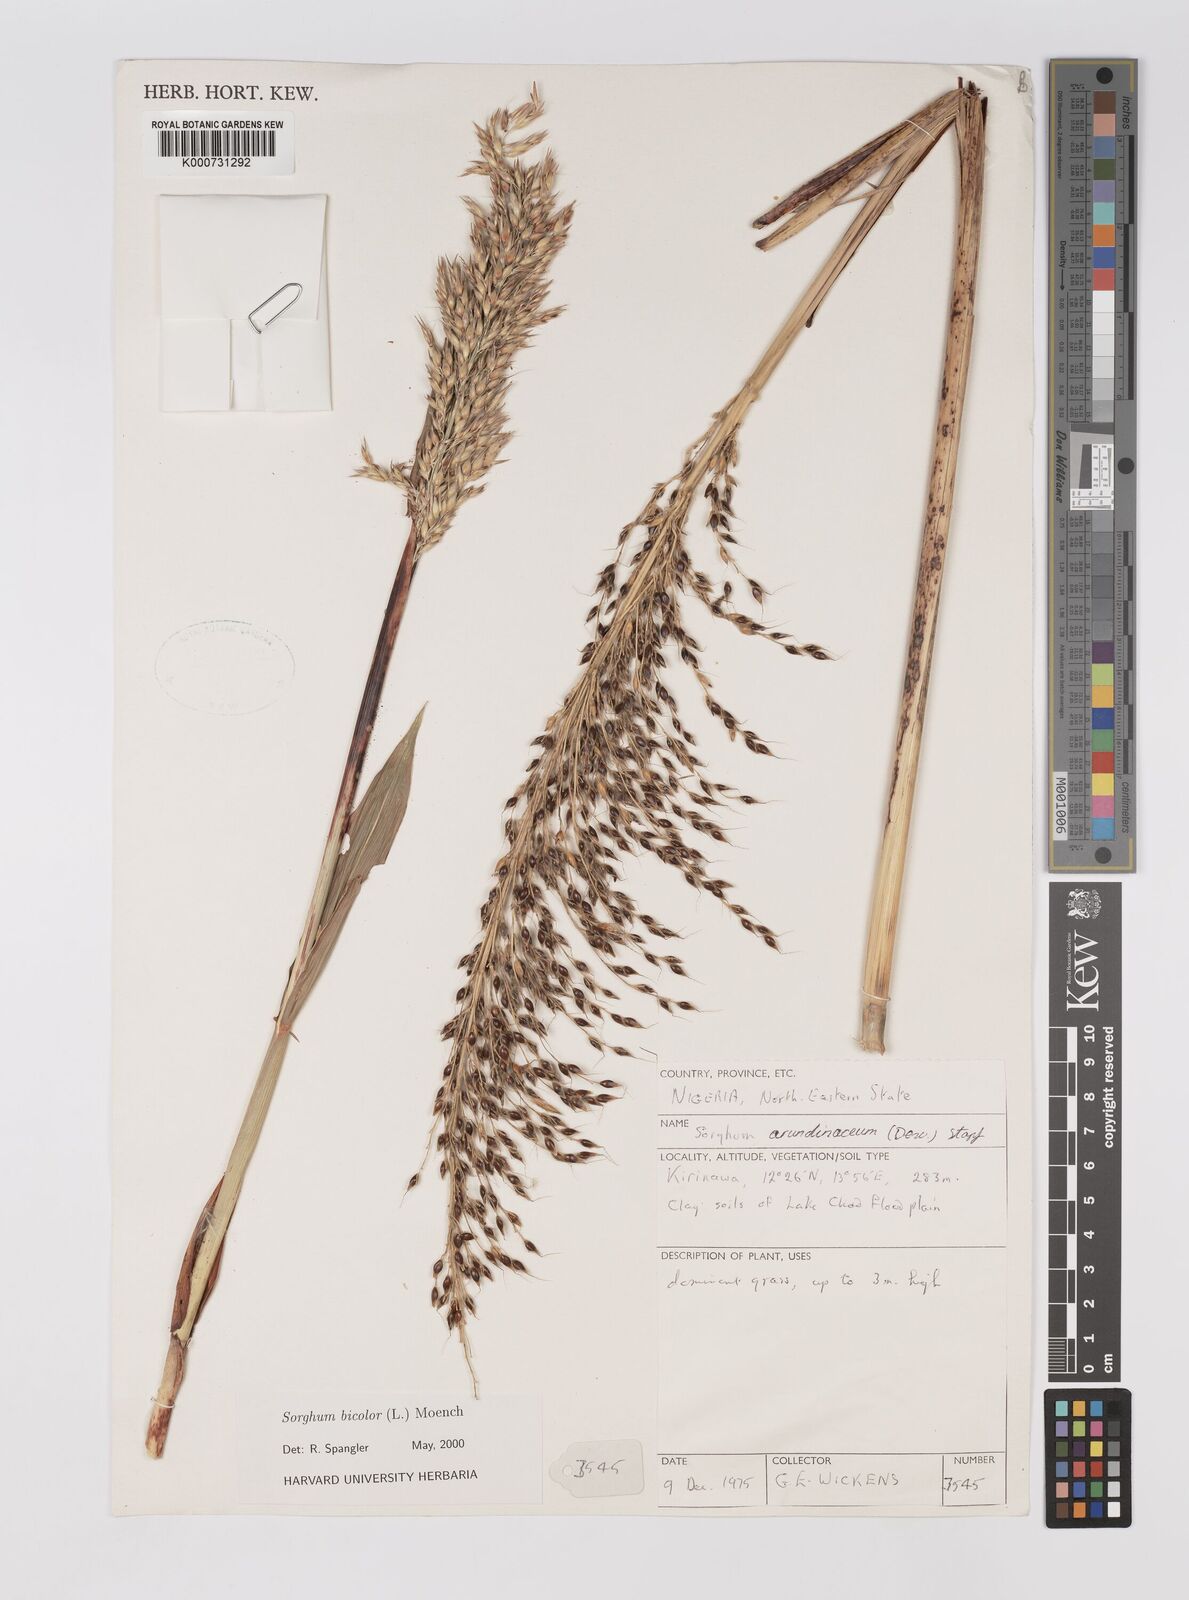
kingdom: Plantae
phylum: Tracheophyta
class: Liliopsida
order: Poales
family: Poaceae
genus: Sorghum
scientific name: Sorghum arundinaceum
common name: Sorghum
